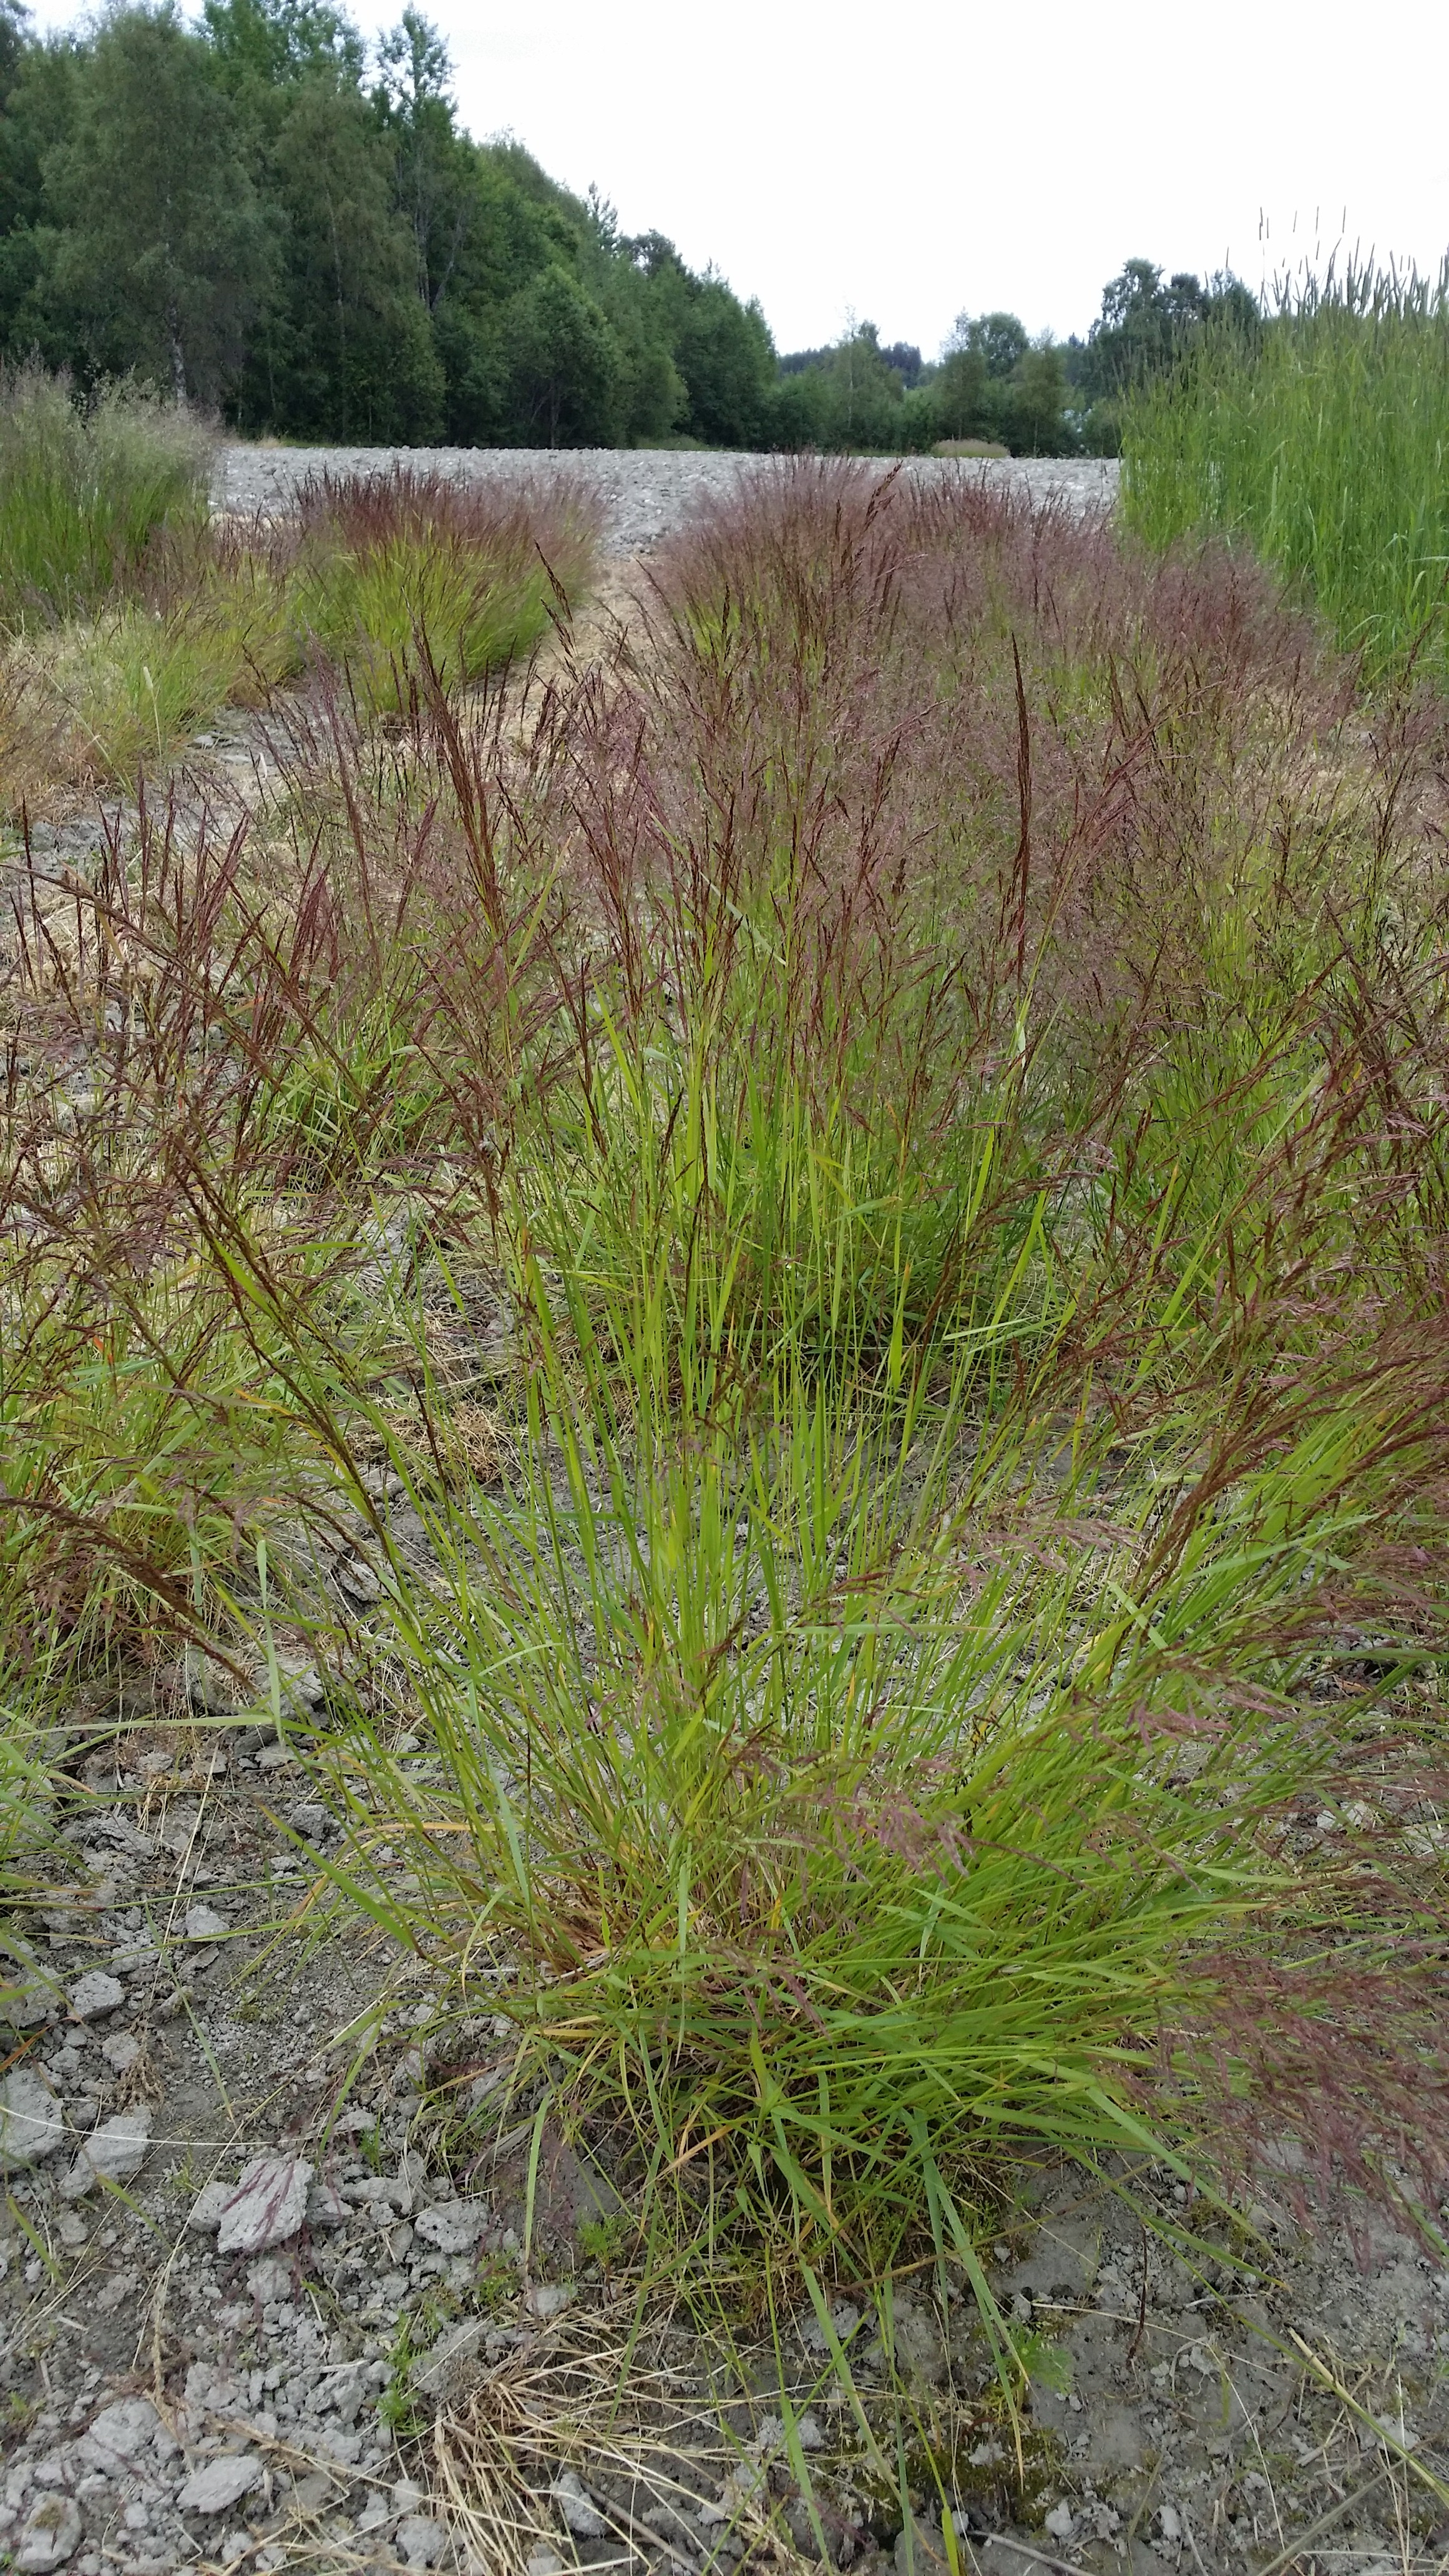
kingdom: Plantae
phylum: Tracheophyta
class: Liliopsida
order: Poales
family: Poaceae
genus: Agrostis
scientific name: Agrostis capillaris
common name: Colonial bentgrass
